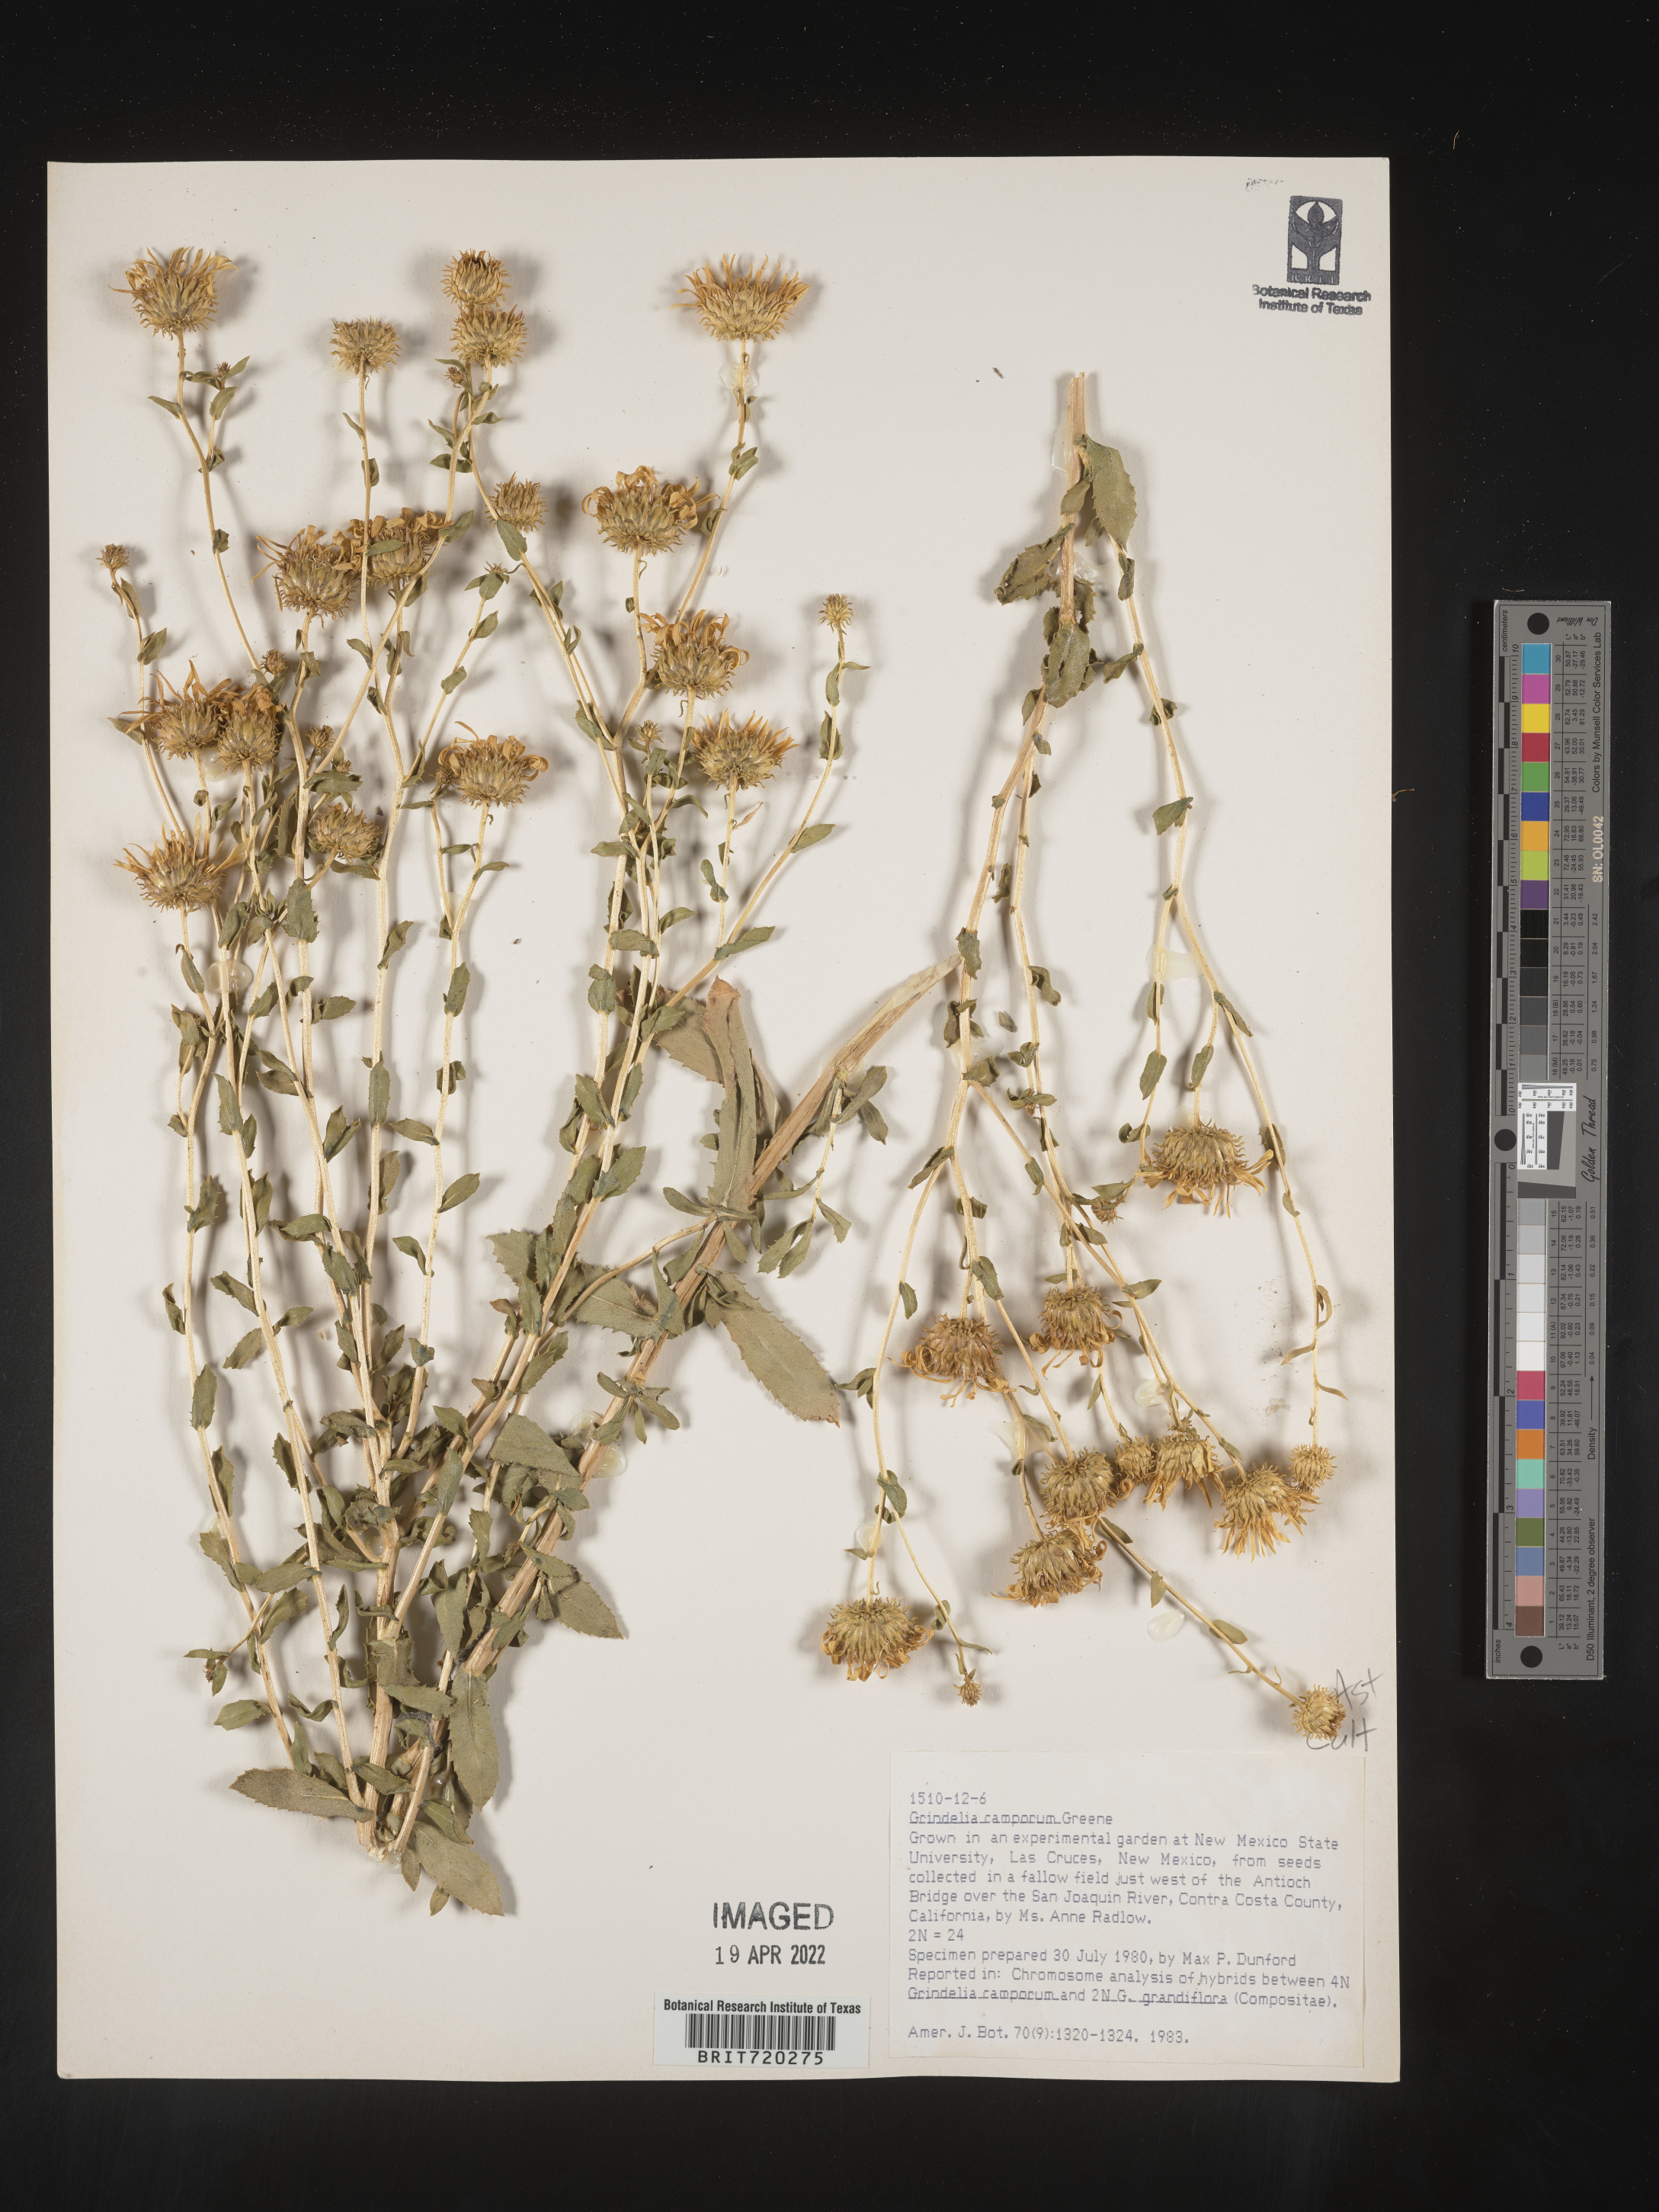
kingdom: Plantae
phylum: Tracheophyta
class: Magnoliopsida
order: Asterales
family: Asteraceae
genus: Grindelia
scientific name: Grindelia
